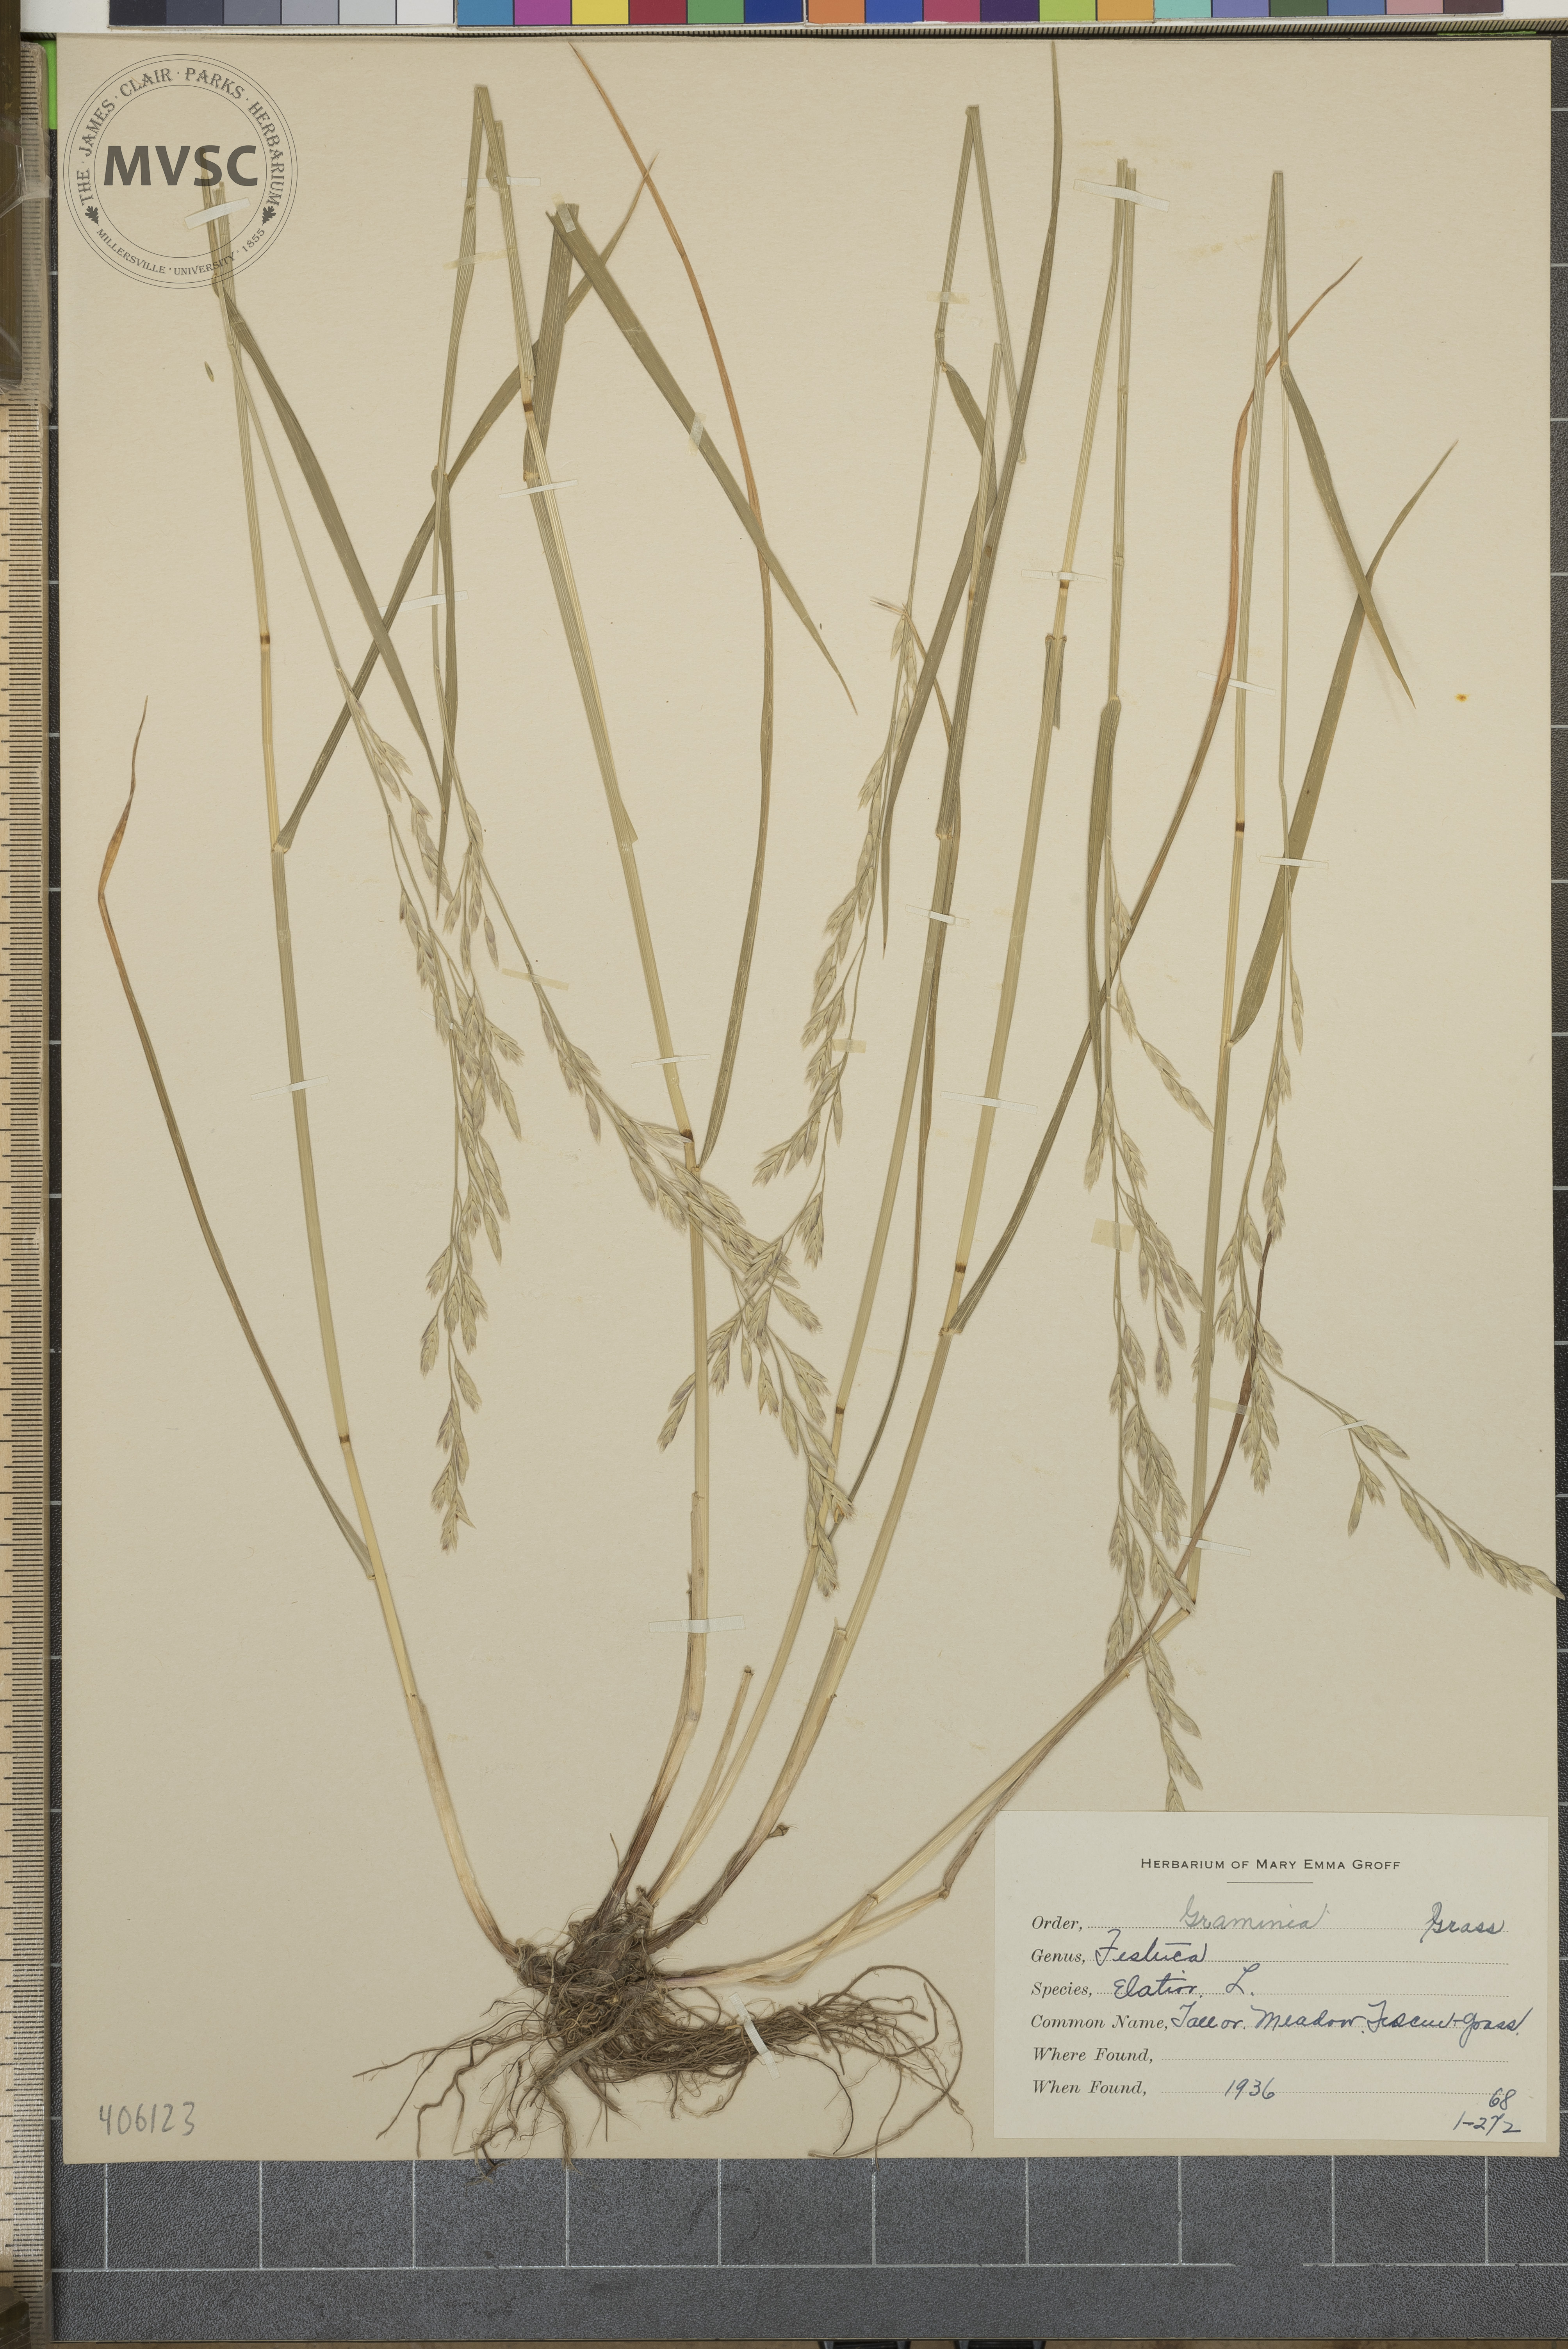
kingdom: Plantae
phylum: Tracheophyta
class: Liliopsida
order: Poales
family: Poaceae
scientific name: Poaceae
